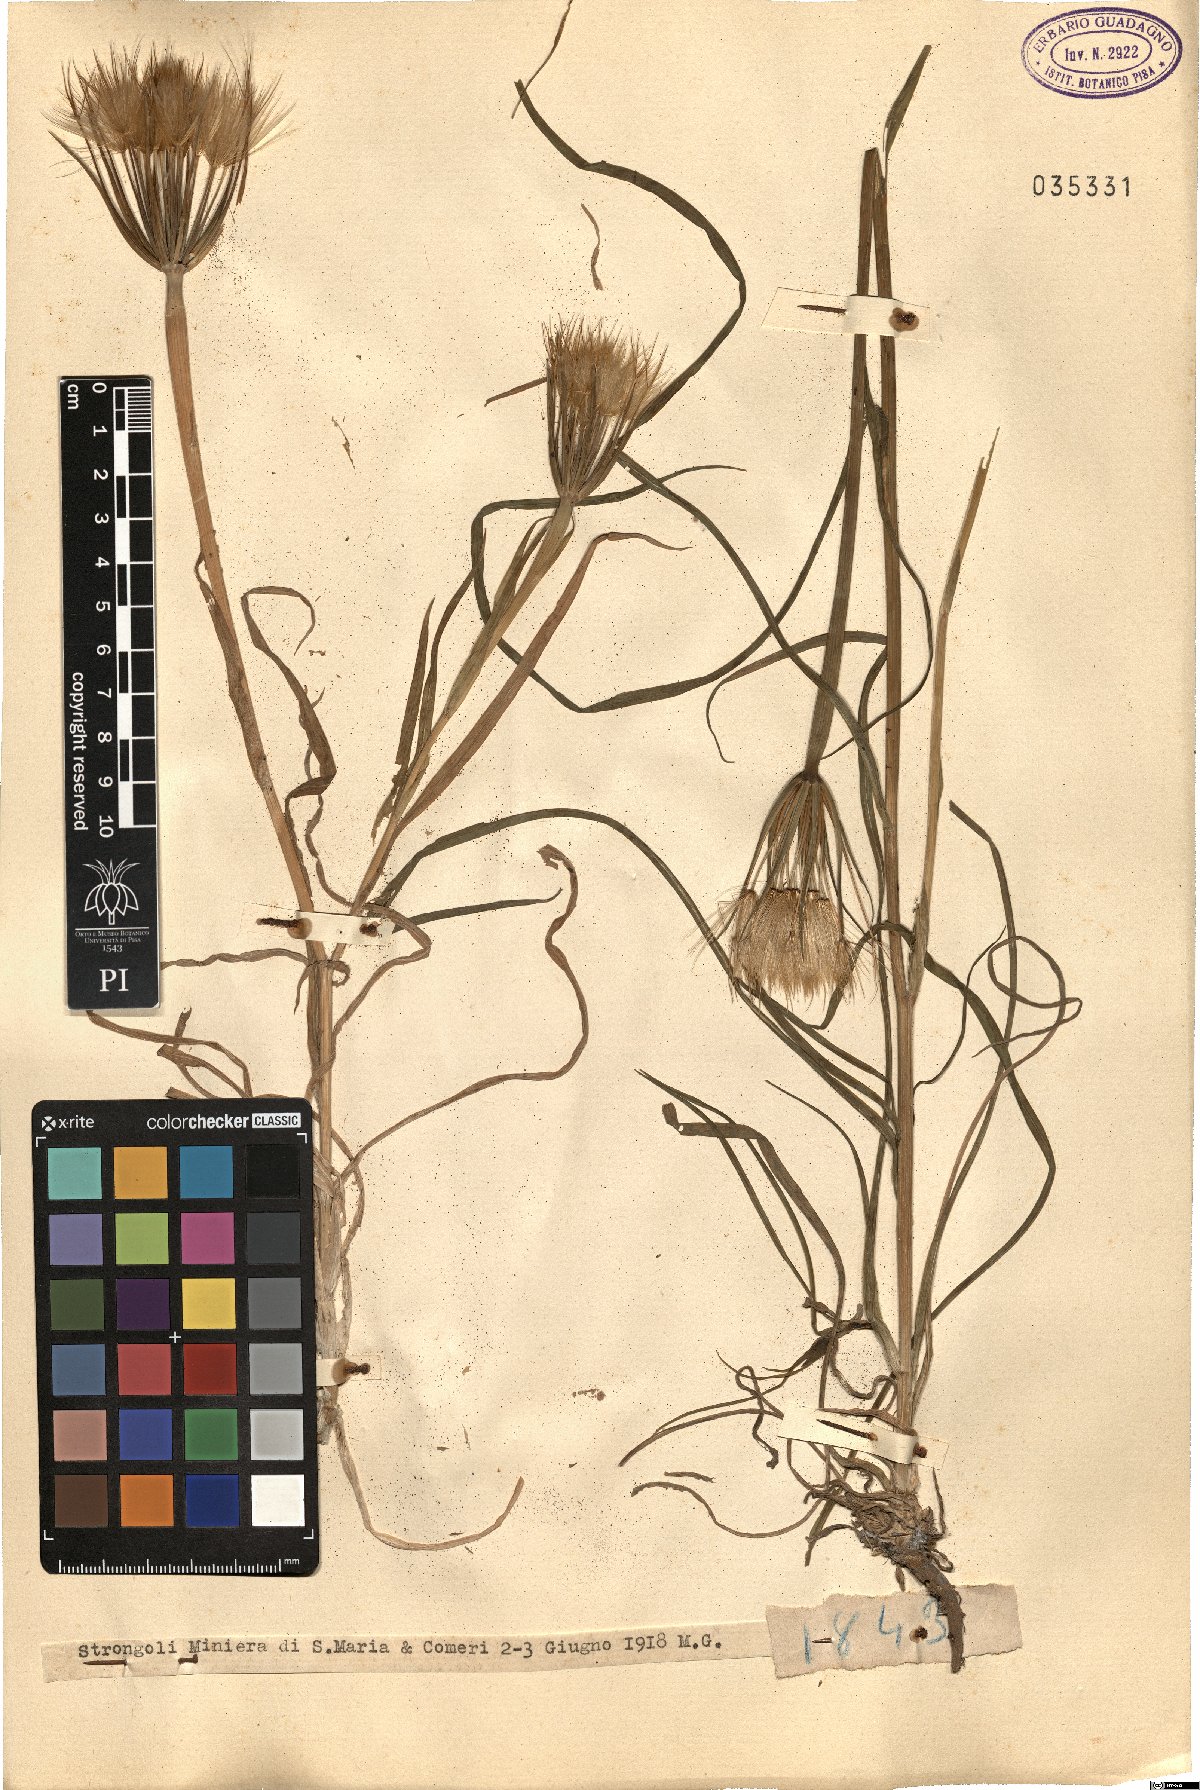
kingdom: Plantae
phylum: Tracheophyta
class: Magnoliopsida
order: Asterales
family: Asteraceae
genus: Geropogon
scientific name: Geropogon
